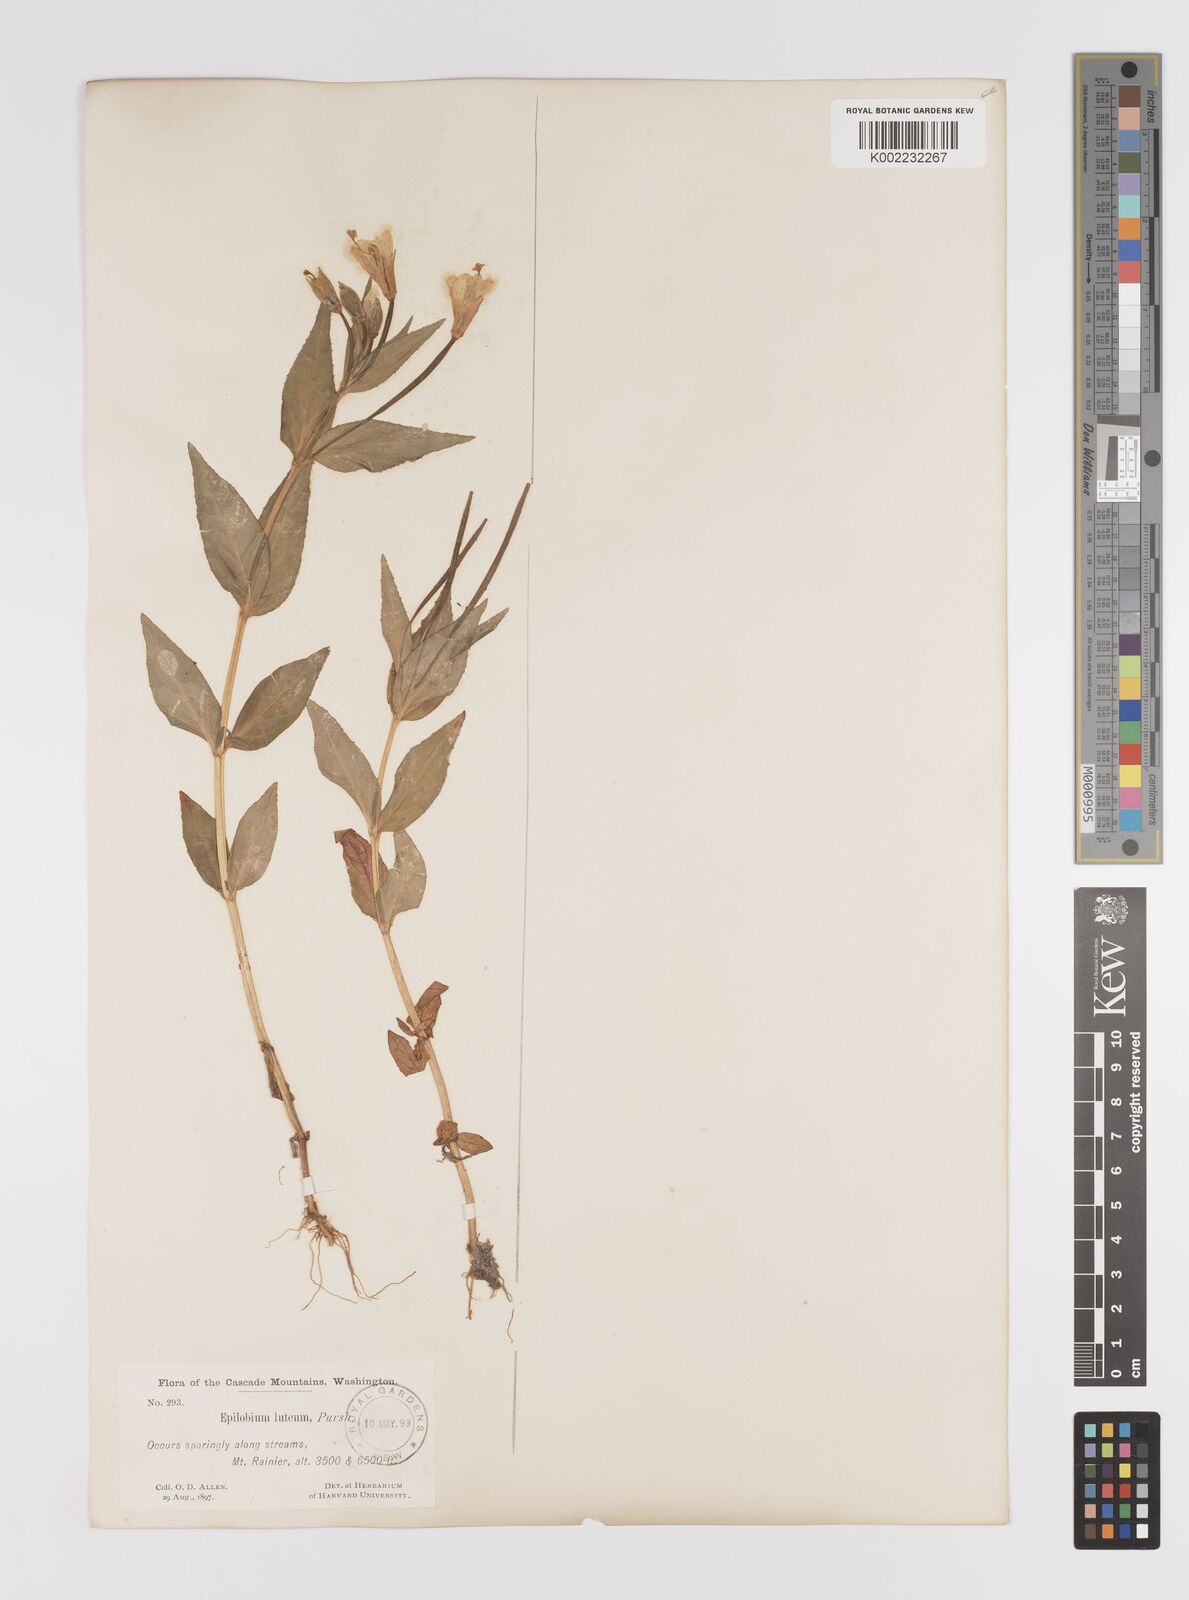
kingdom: Plantae
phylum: Tracheophyta
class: Magnoliopsida
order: Myrtales
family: Onagraceae
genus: Epilobium
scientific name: Epilobium luteum
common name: Yellow willowherb
